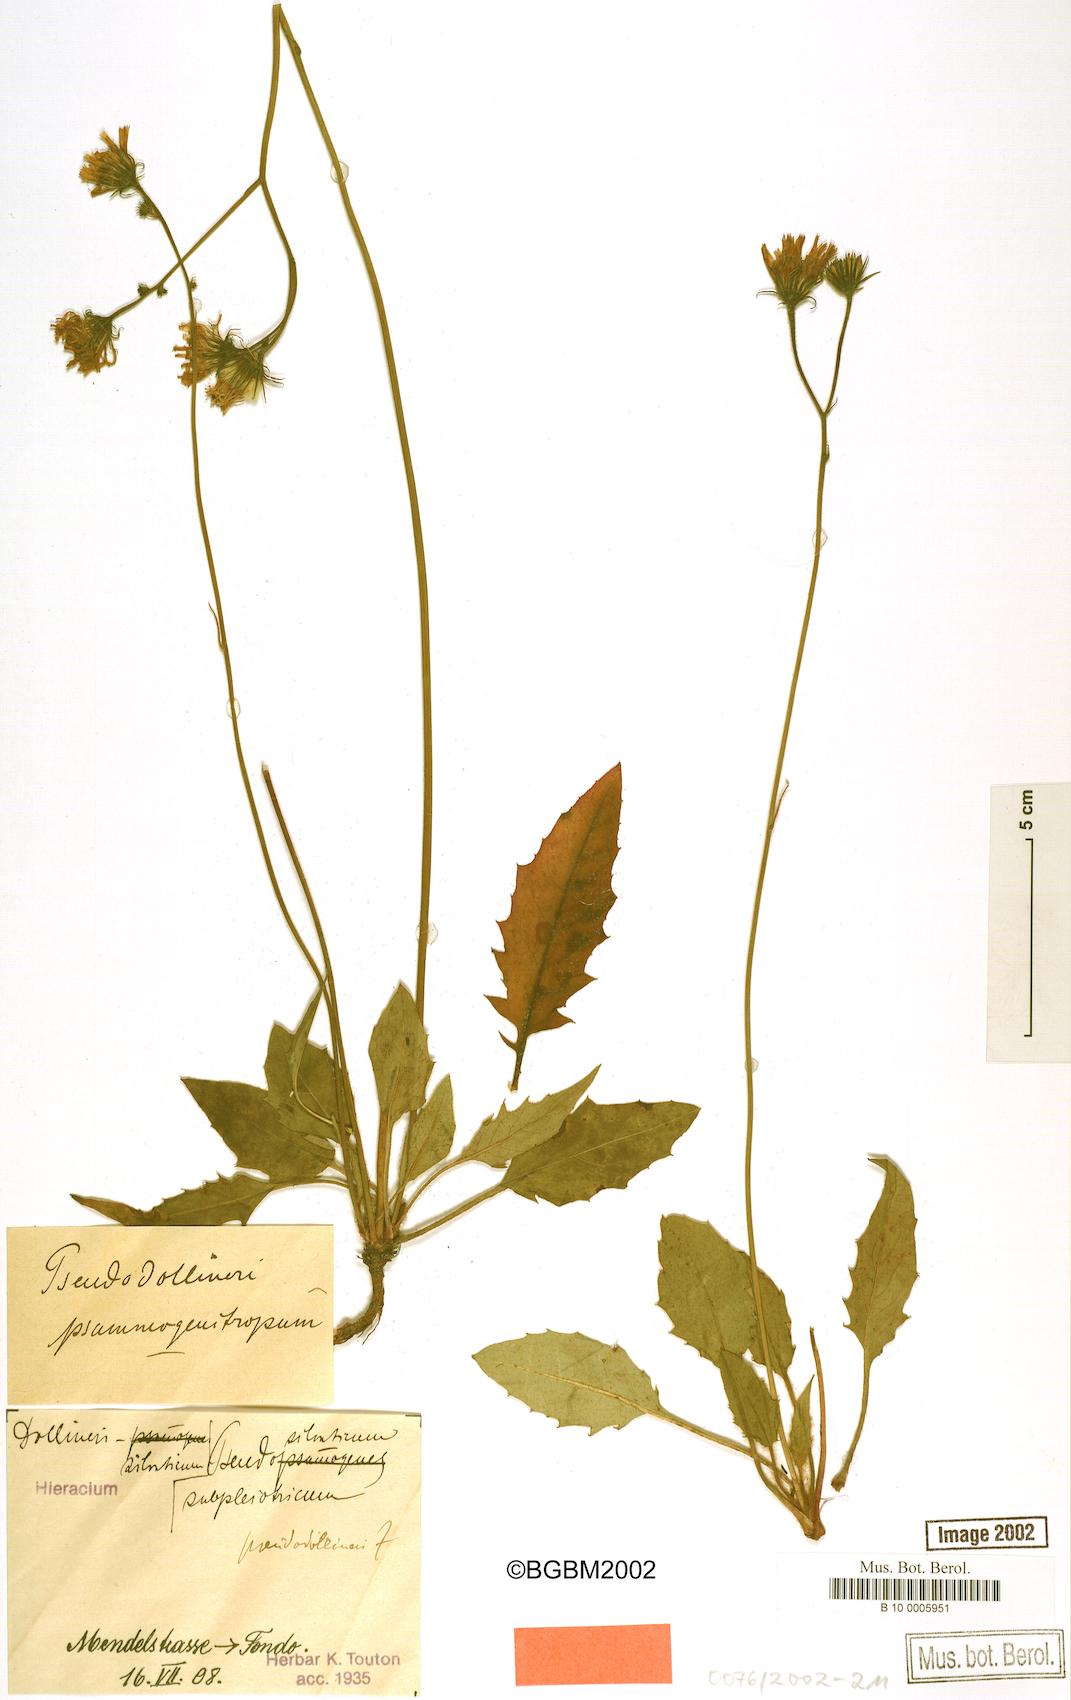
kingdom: Plantae
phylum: Tracheophyta
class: Magnoliopsida
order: Asterales
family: Asteraceae
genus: Hieracium
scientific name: Hieracium bifidum
